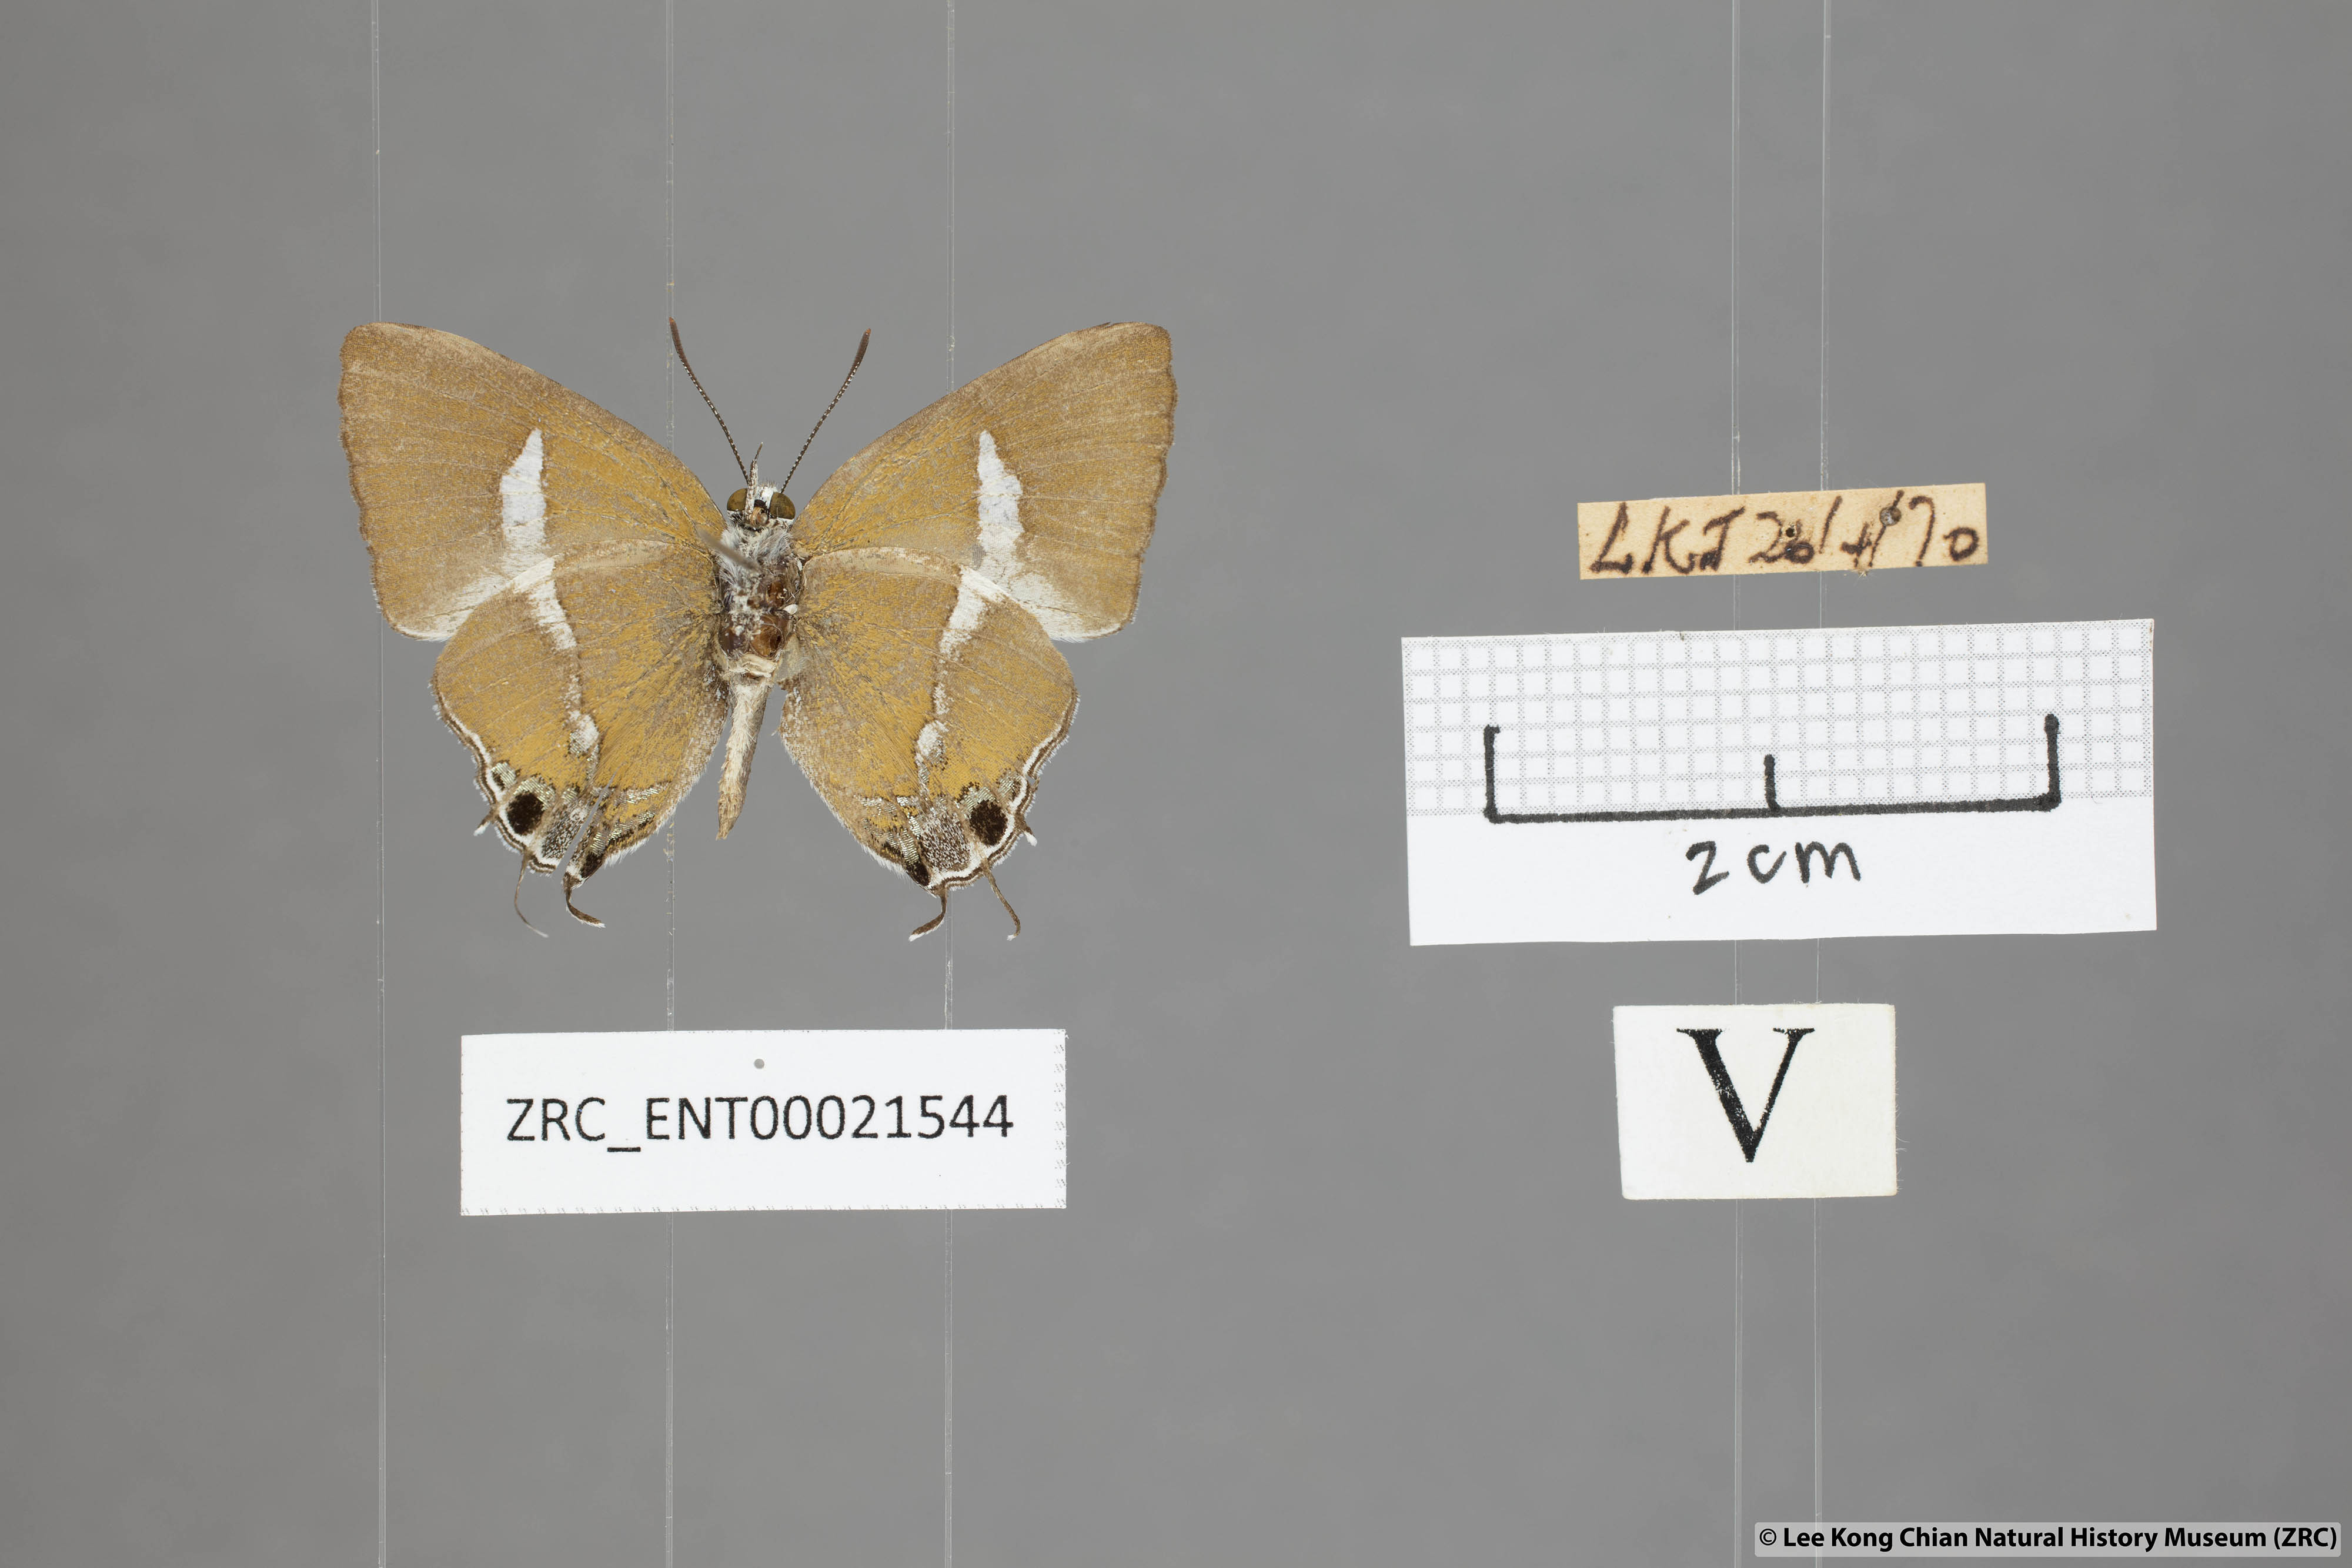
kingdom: Animalia
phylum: Arthropoda
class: Insecta
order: Lepidoptera
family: Lycaenidae
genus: Horaga
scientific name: Horaga syrinx
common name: Ambon onyx
